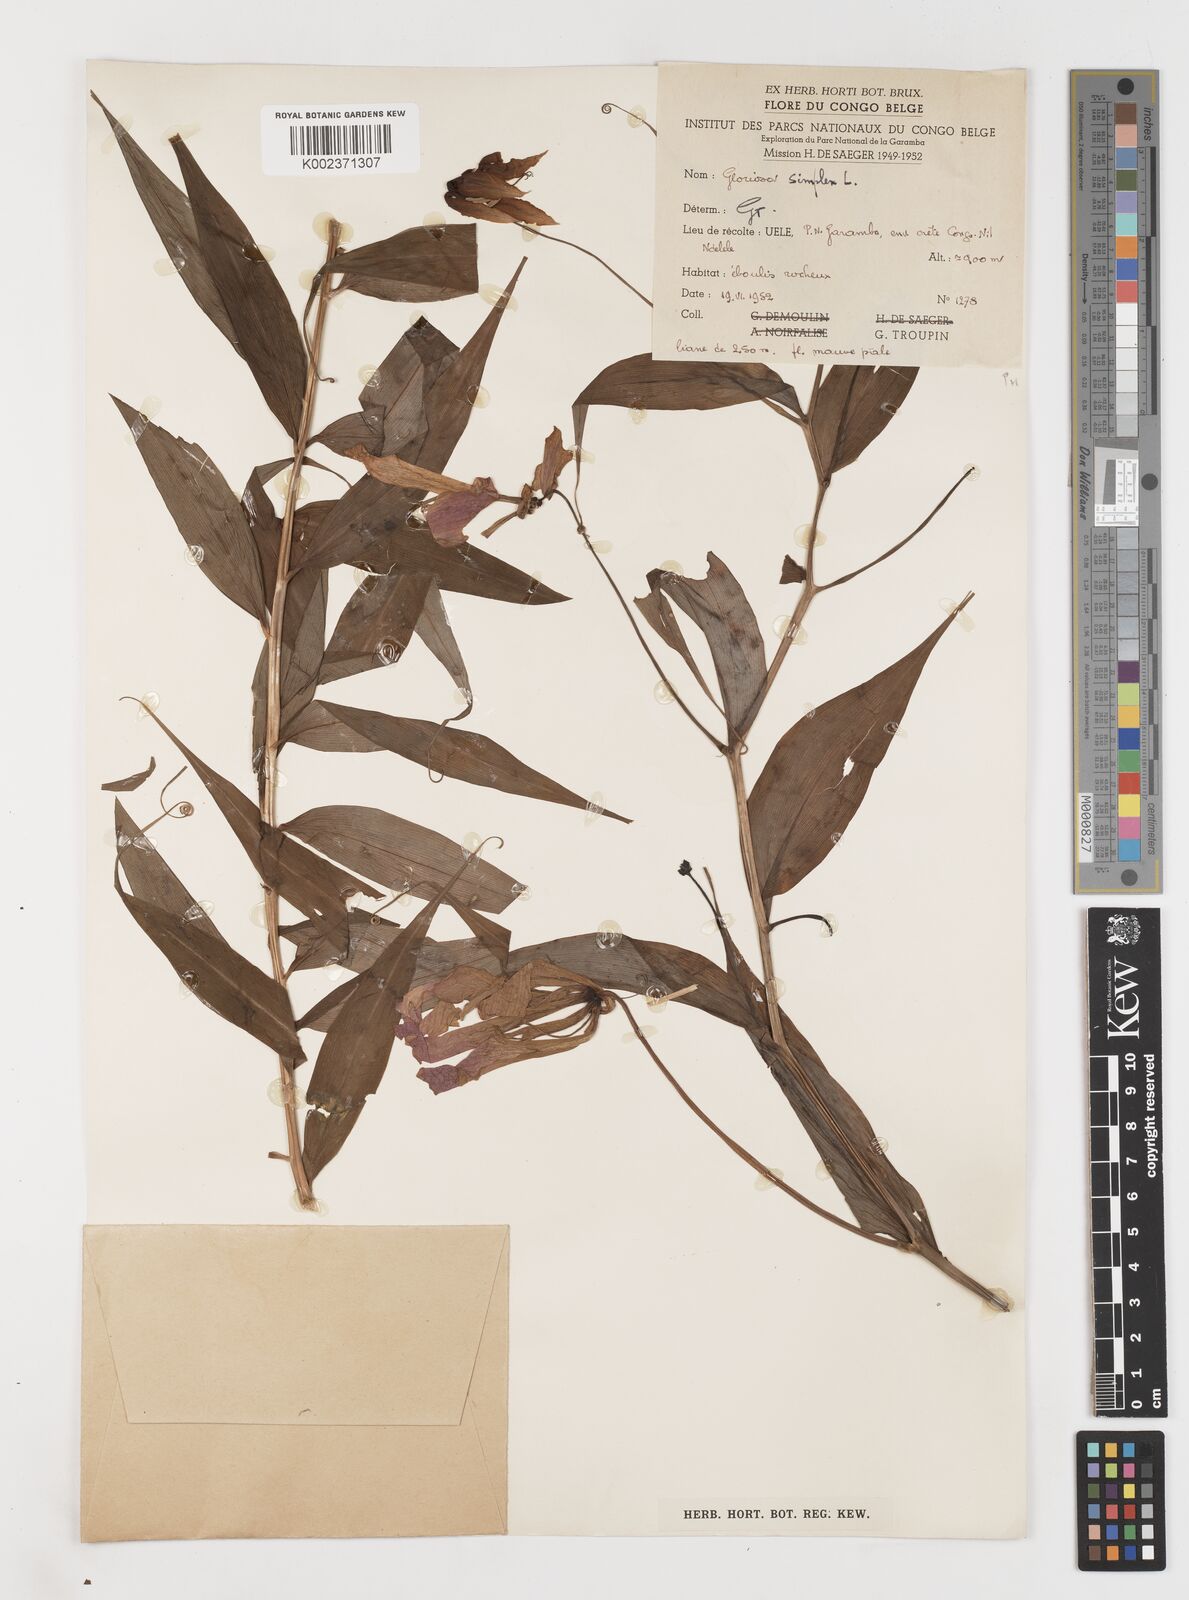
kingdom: Plantae
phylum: Tracheophyta
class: Liliopsida
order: Liliales
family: Colchicaceae
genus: Gloriosa
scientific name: Gloriosa simplex
